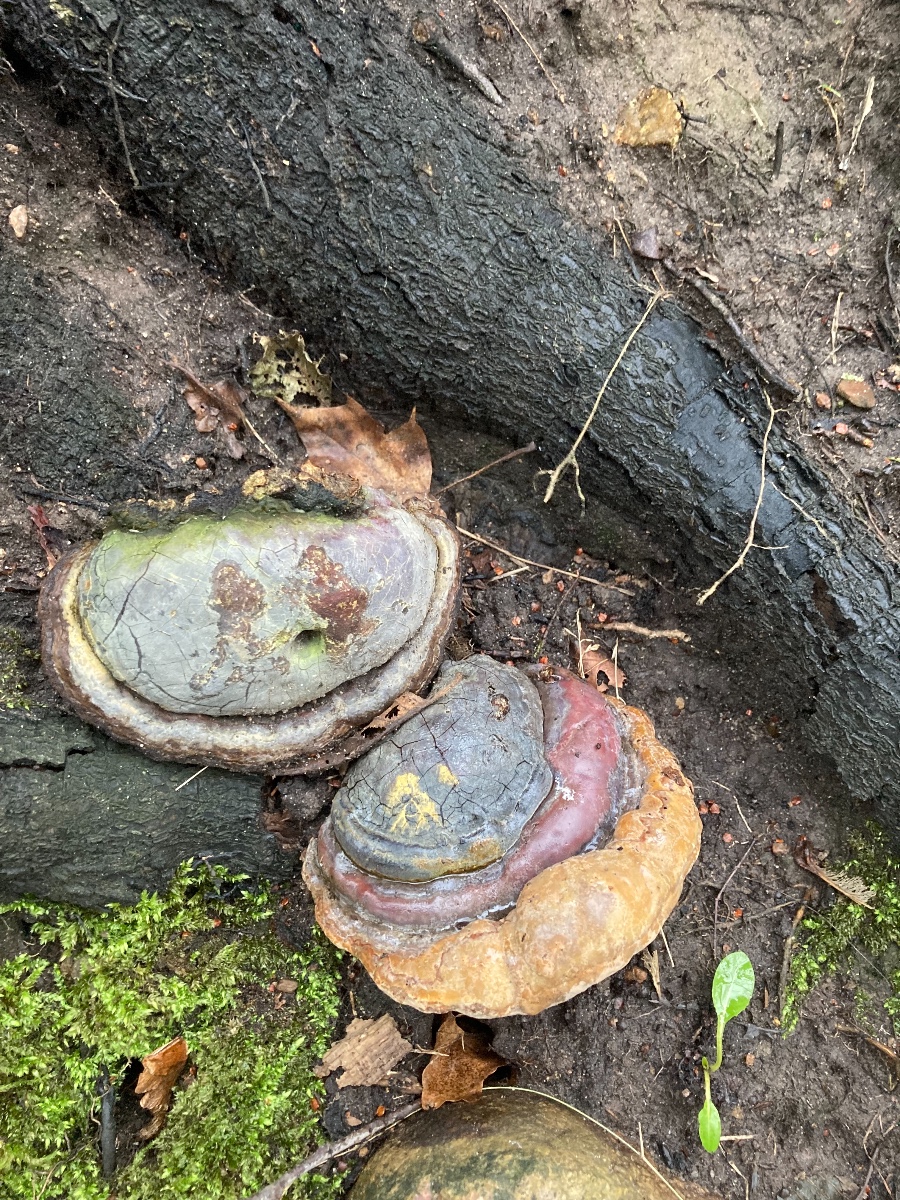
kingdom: Fungi
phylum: Basidiomycota
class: Agaricomycetes
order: Polyporales
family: Polyporaceae
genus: Ganoderma
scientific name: Ganoderma pfeifferi
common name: kobberrød lakporesvamp
